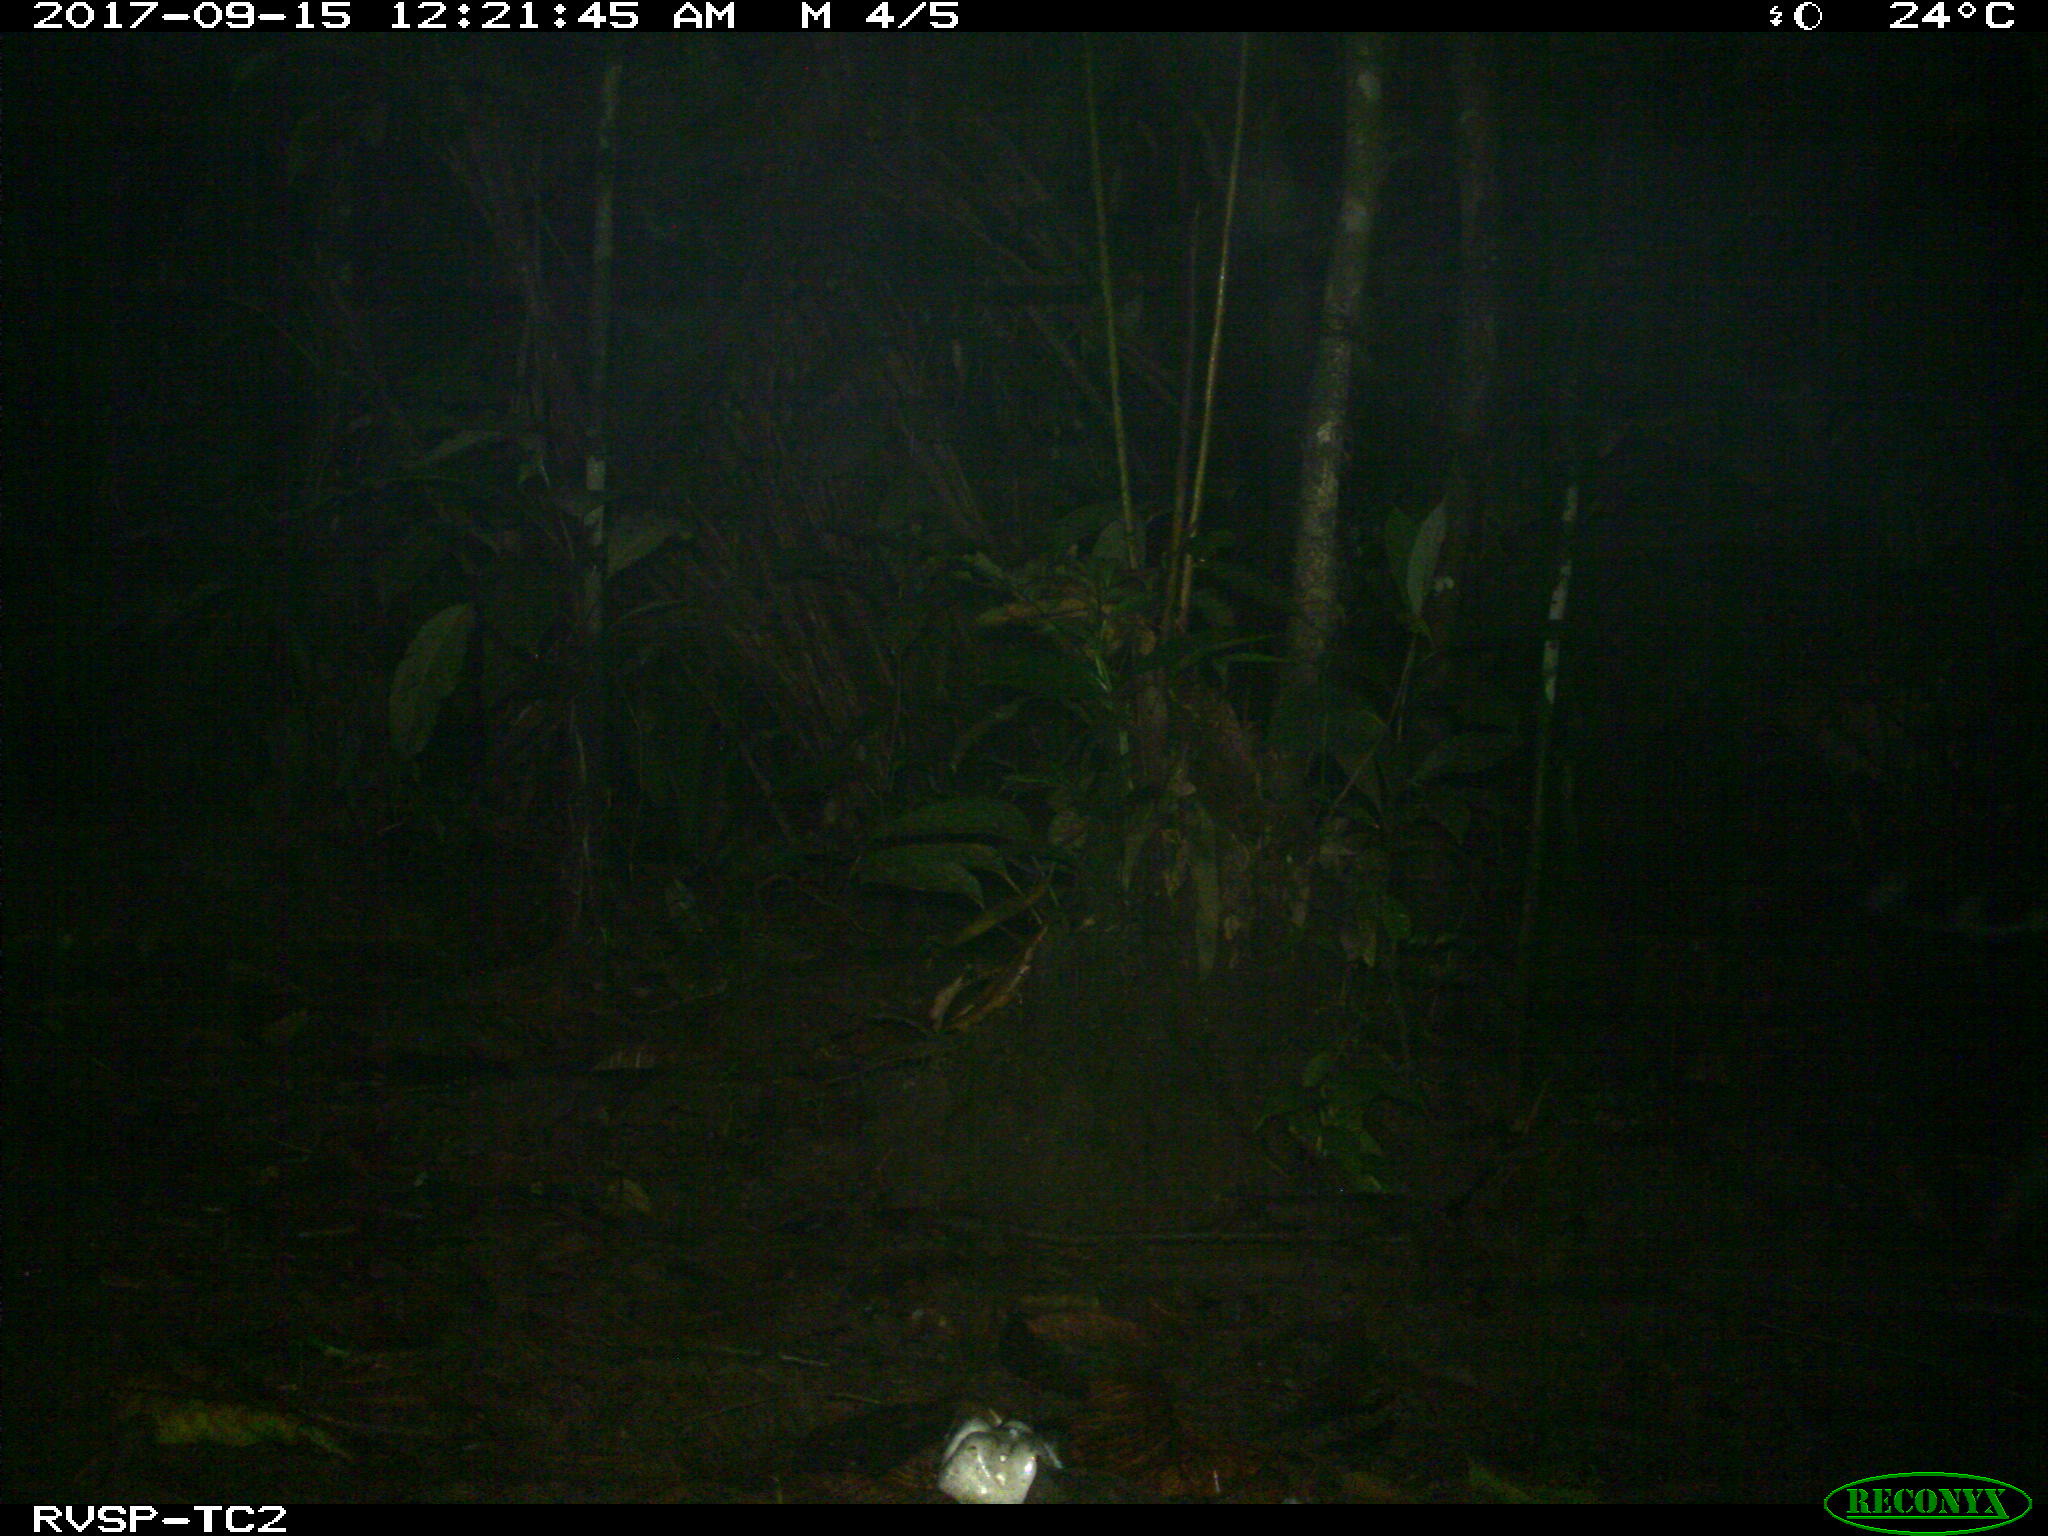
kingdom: Animalia
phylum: Chordata
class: Mammalia
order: Carnivora
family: Felidae
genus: Leopardus
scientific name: Leopardus pardalis
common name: Ocelot
